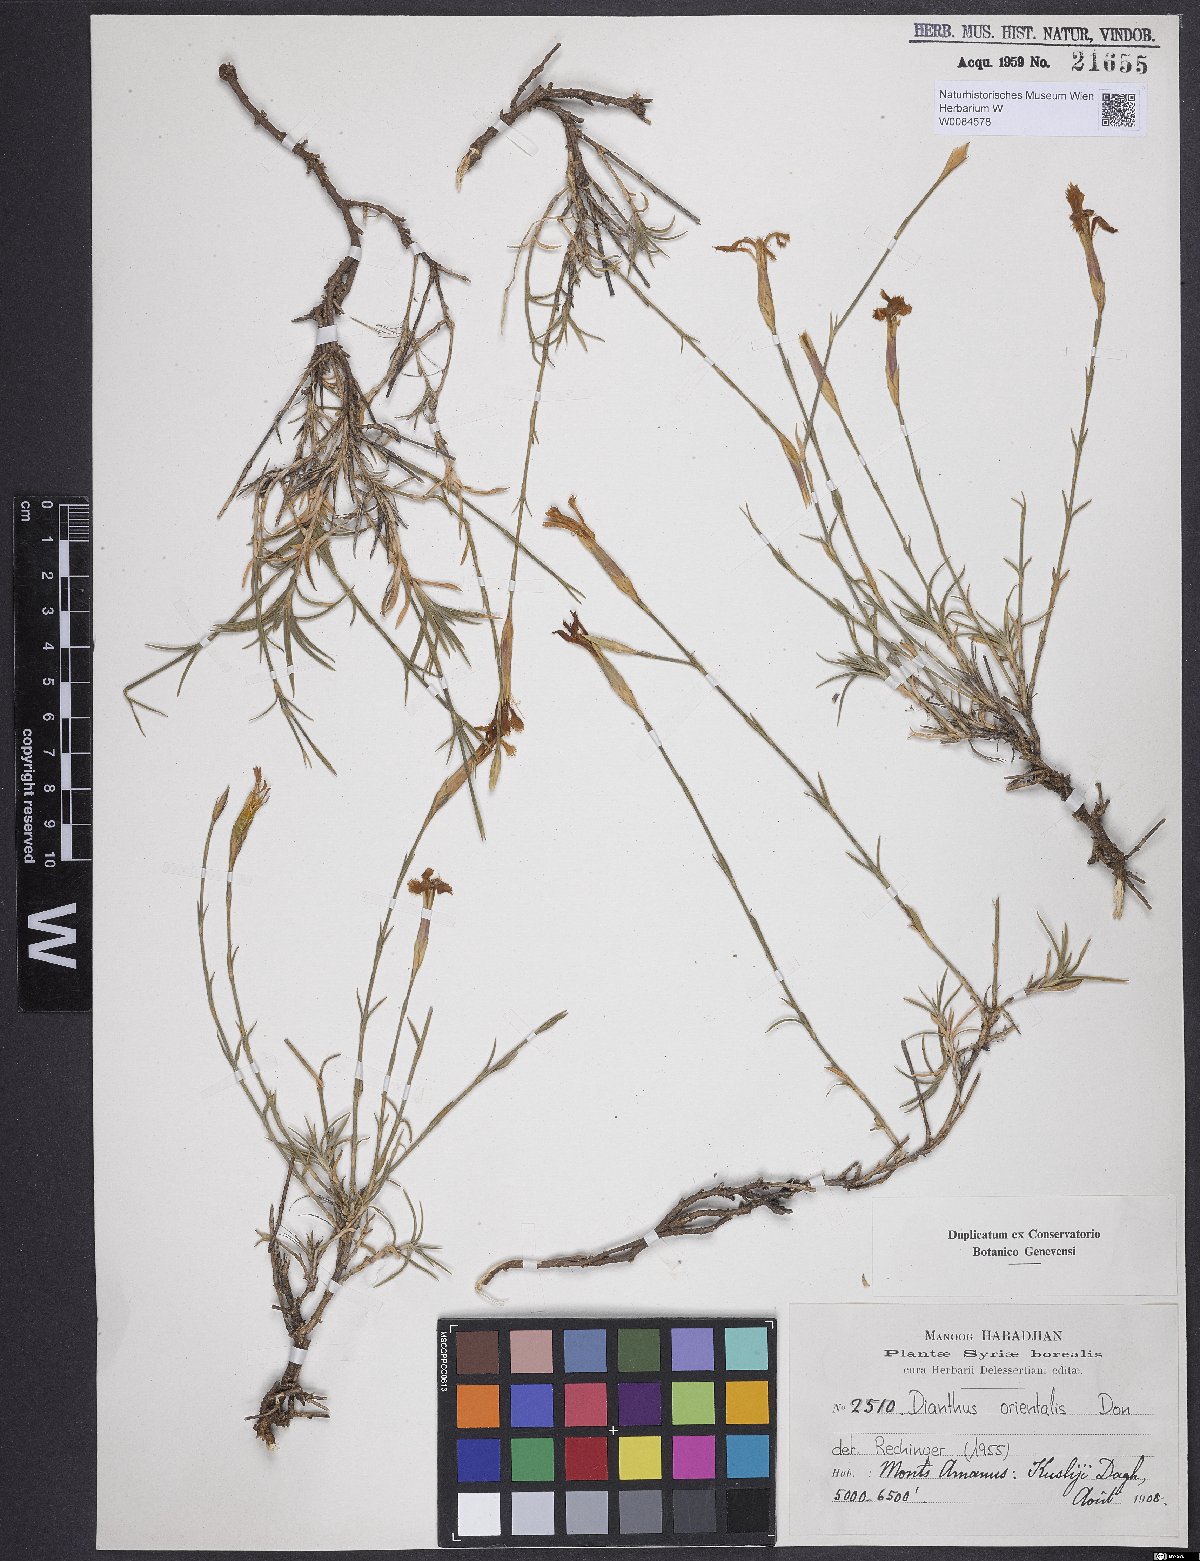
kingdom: Plantae
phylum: Tracheophyta
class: Magnoliopsida
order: Caryophyllales
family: Caryophyllaceae
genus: Dianthus
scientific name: Dianthus orientalis
